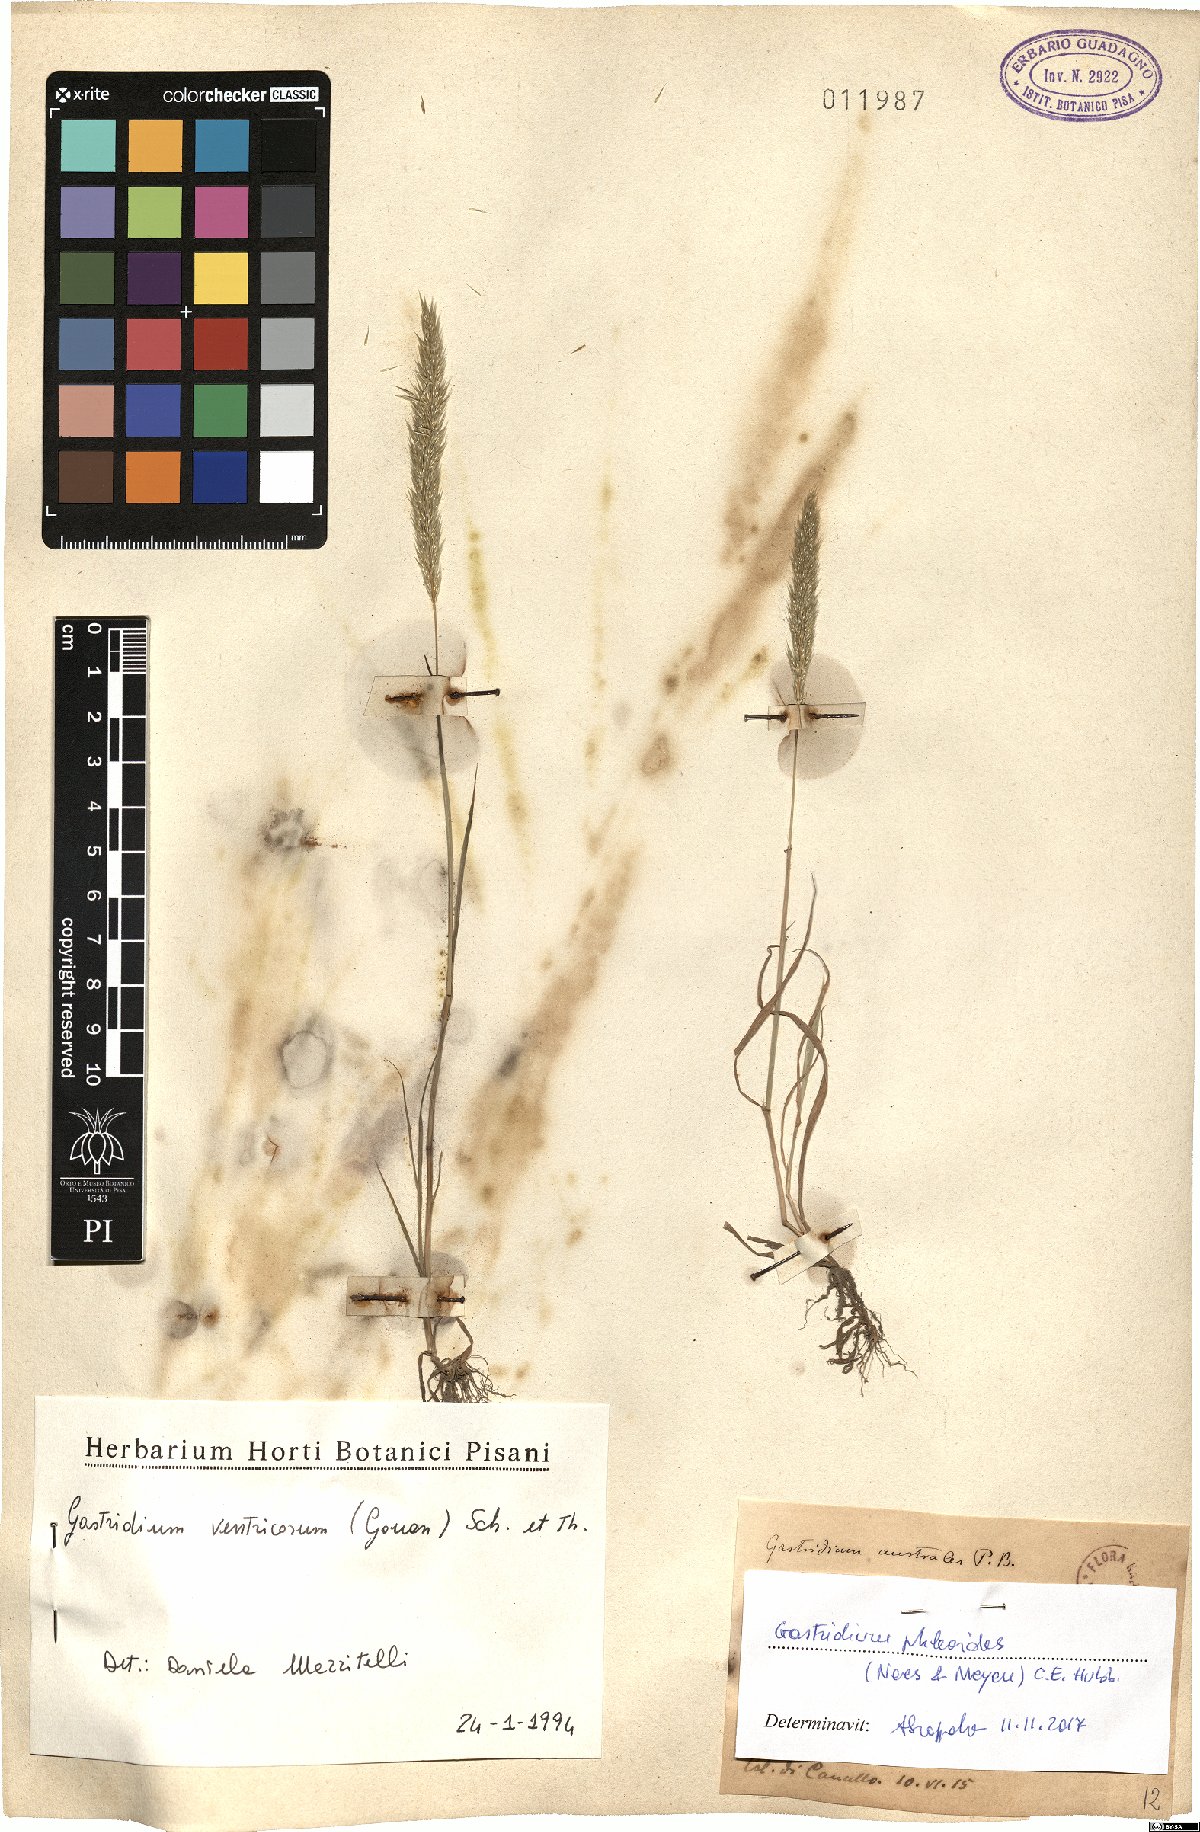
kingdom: Plantae
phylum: Tracheophyta
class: Liliopsida
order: Poales
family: Poaceae
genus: Gastridium
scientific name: Gastridium phleoides
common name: Nit grass
